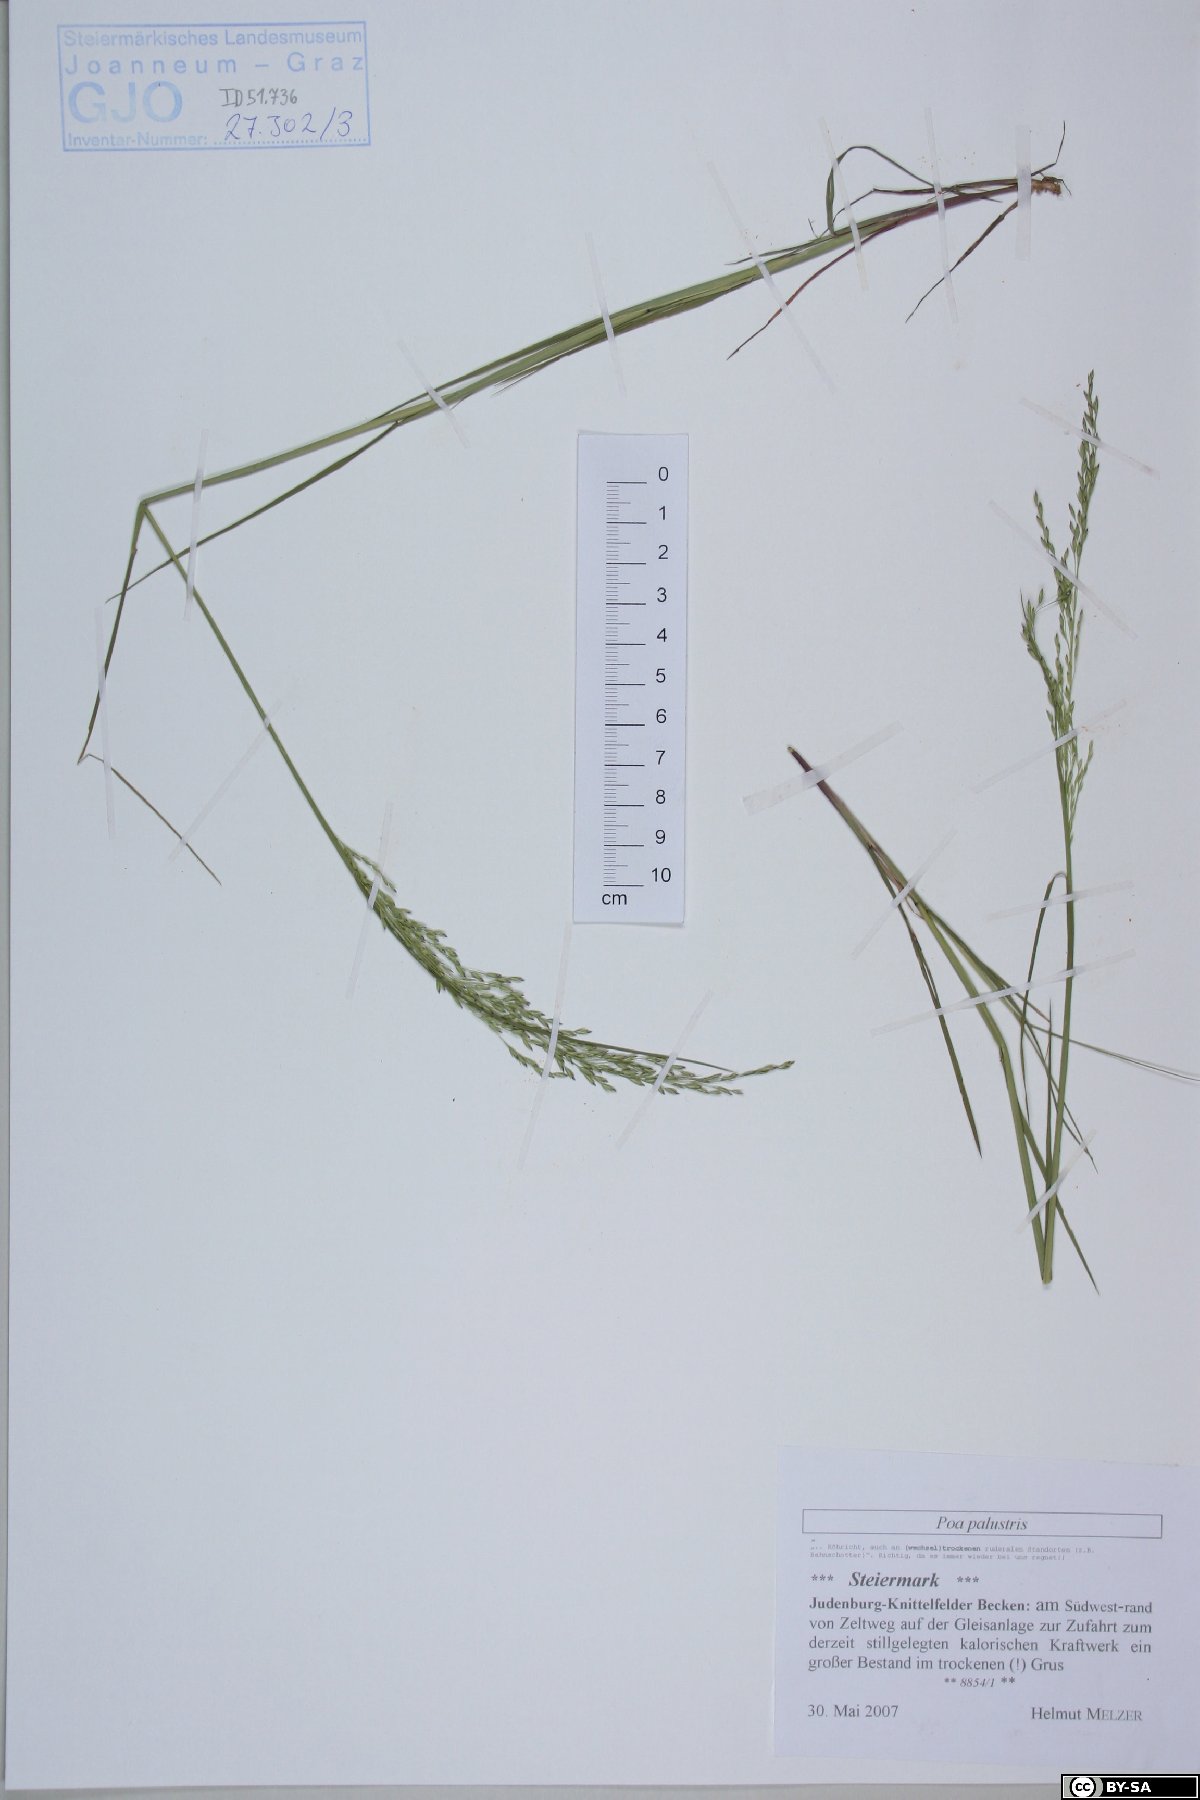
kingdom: Plantae
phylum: Tracheophyta
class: Liliopsida
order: Poales
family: Poaceae
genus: Poa
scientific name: Poa palustris
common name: Swamp meadow-grass
